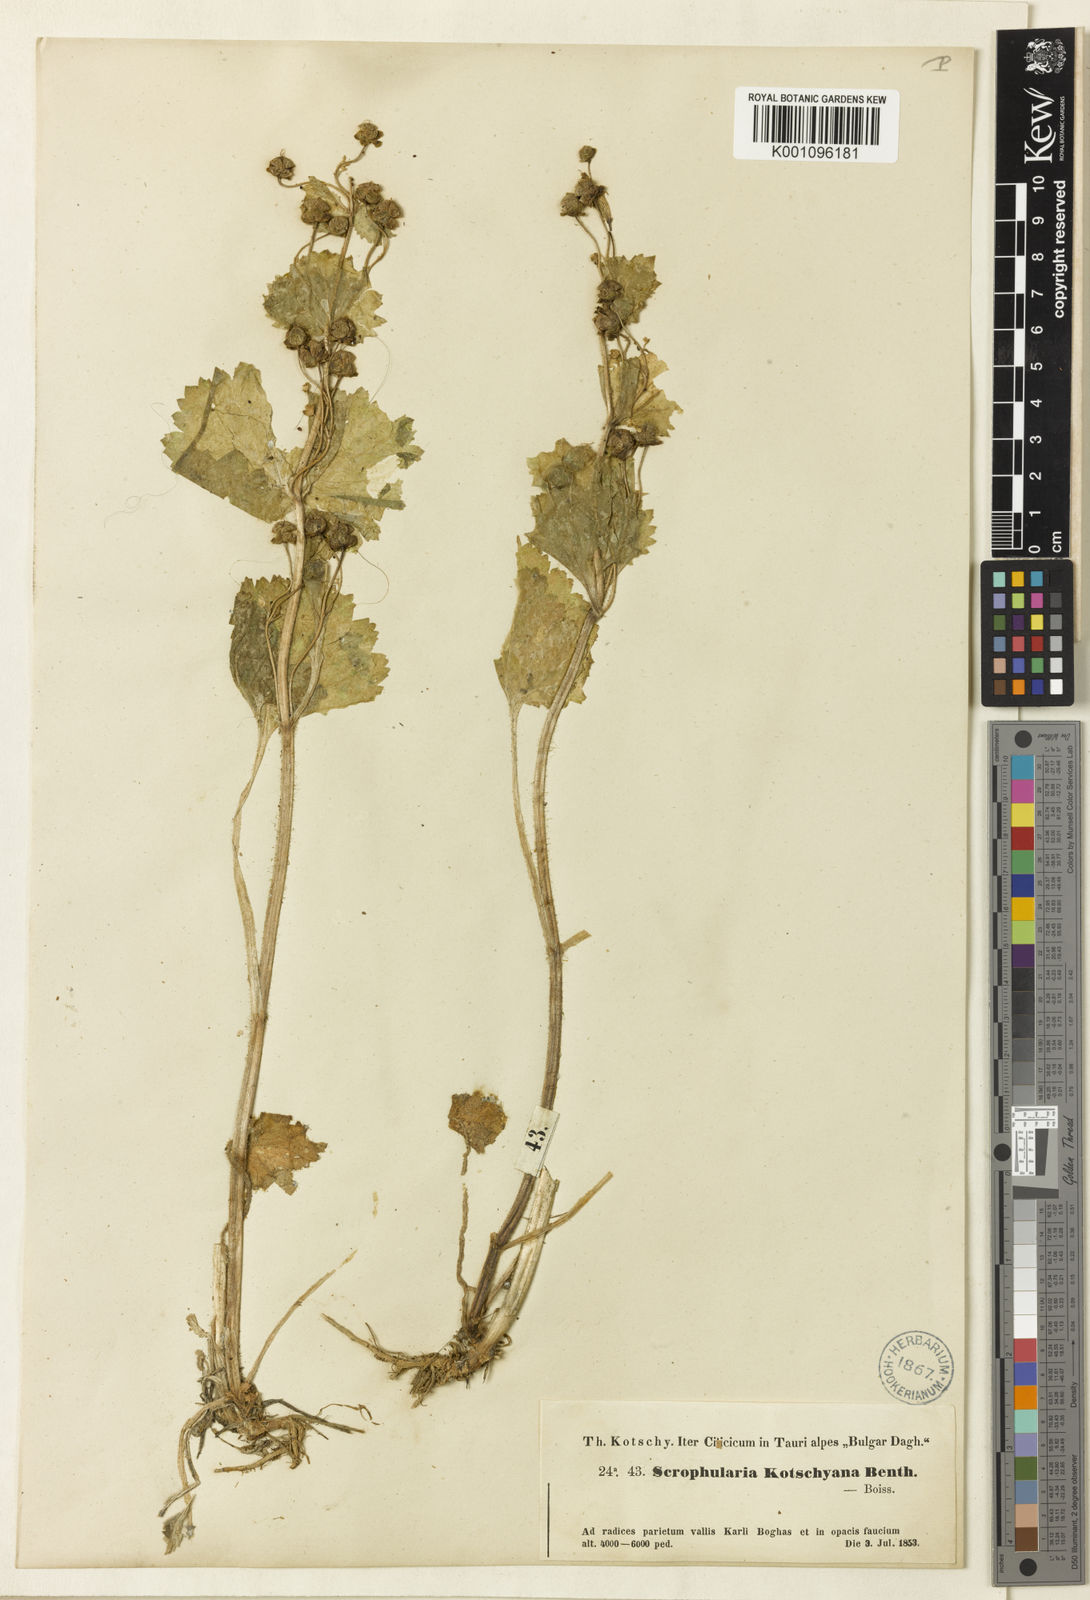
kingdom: Plantae
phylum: Tracheophyta
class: Magnoliopsida
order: Lamiales
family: Scrophulariaceae
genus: Scrophularia
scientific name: Scrophularia kotschyana
